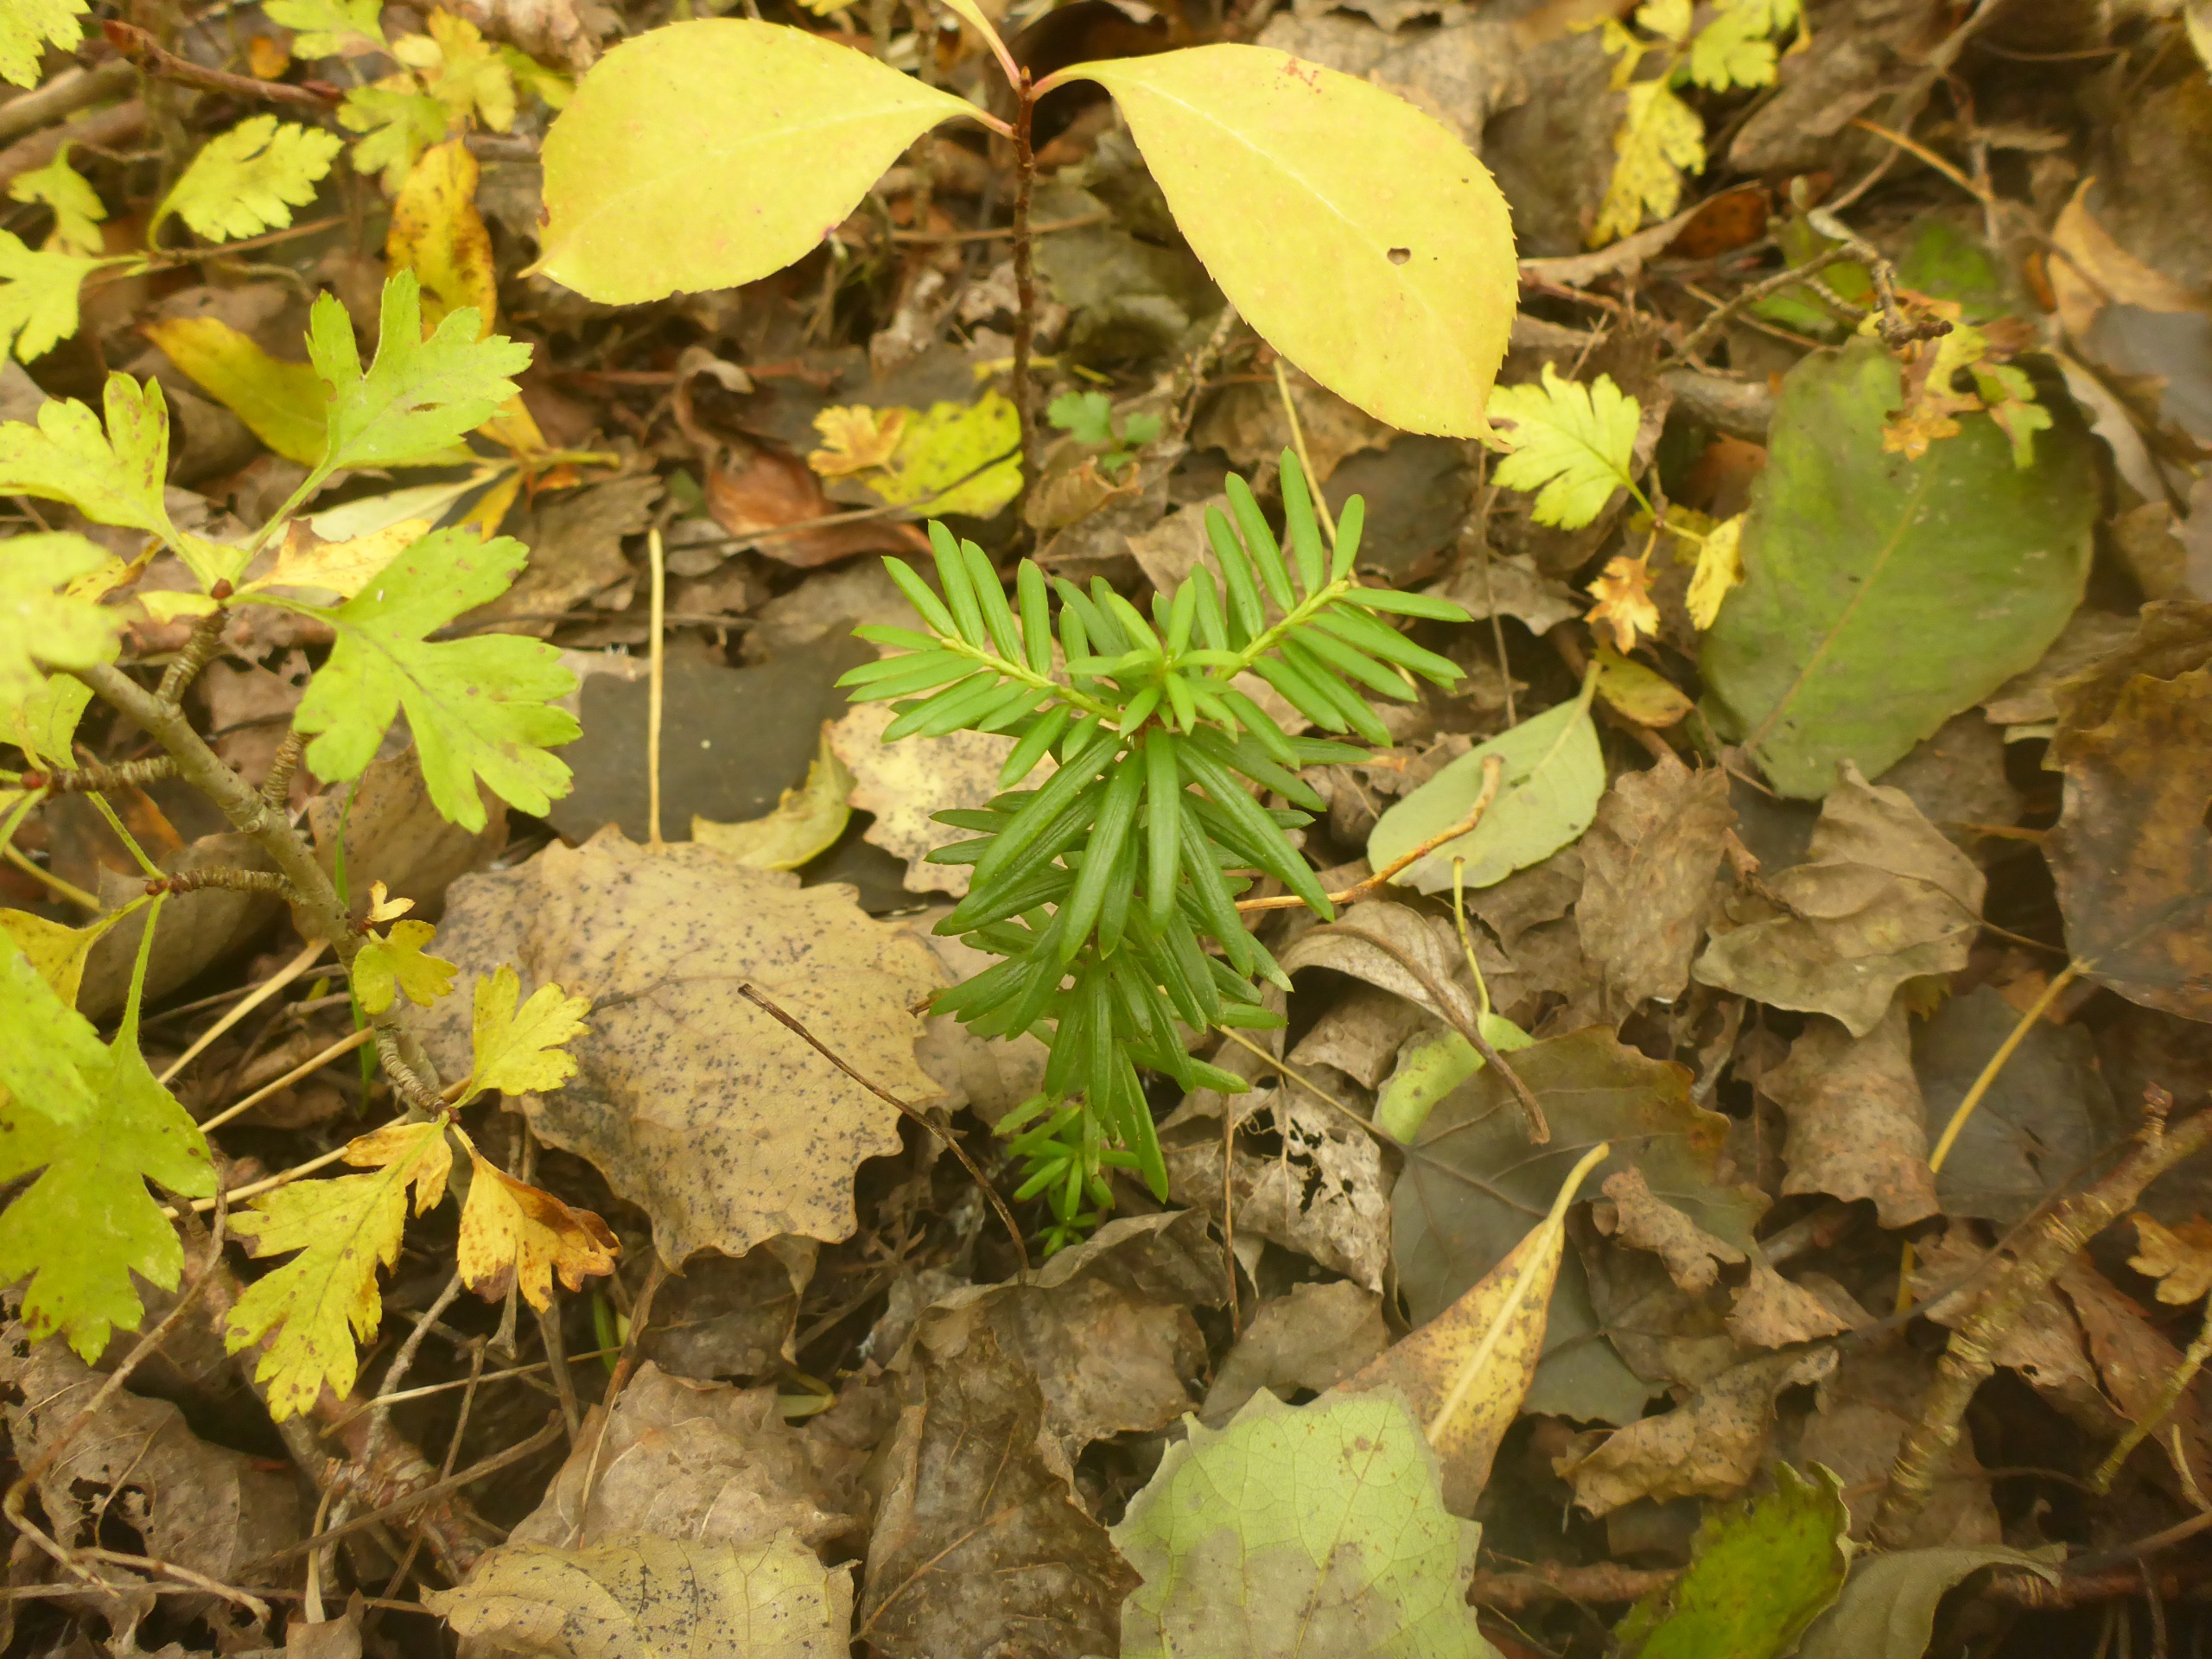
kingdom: Plantae
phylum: Tracheophyta
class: Pinopsida
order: Pinales
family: Taxaceae
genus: Taxus
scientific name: Taxus baccata
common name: Almindelig taks
